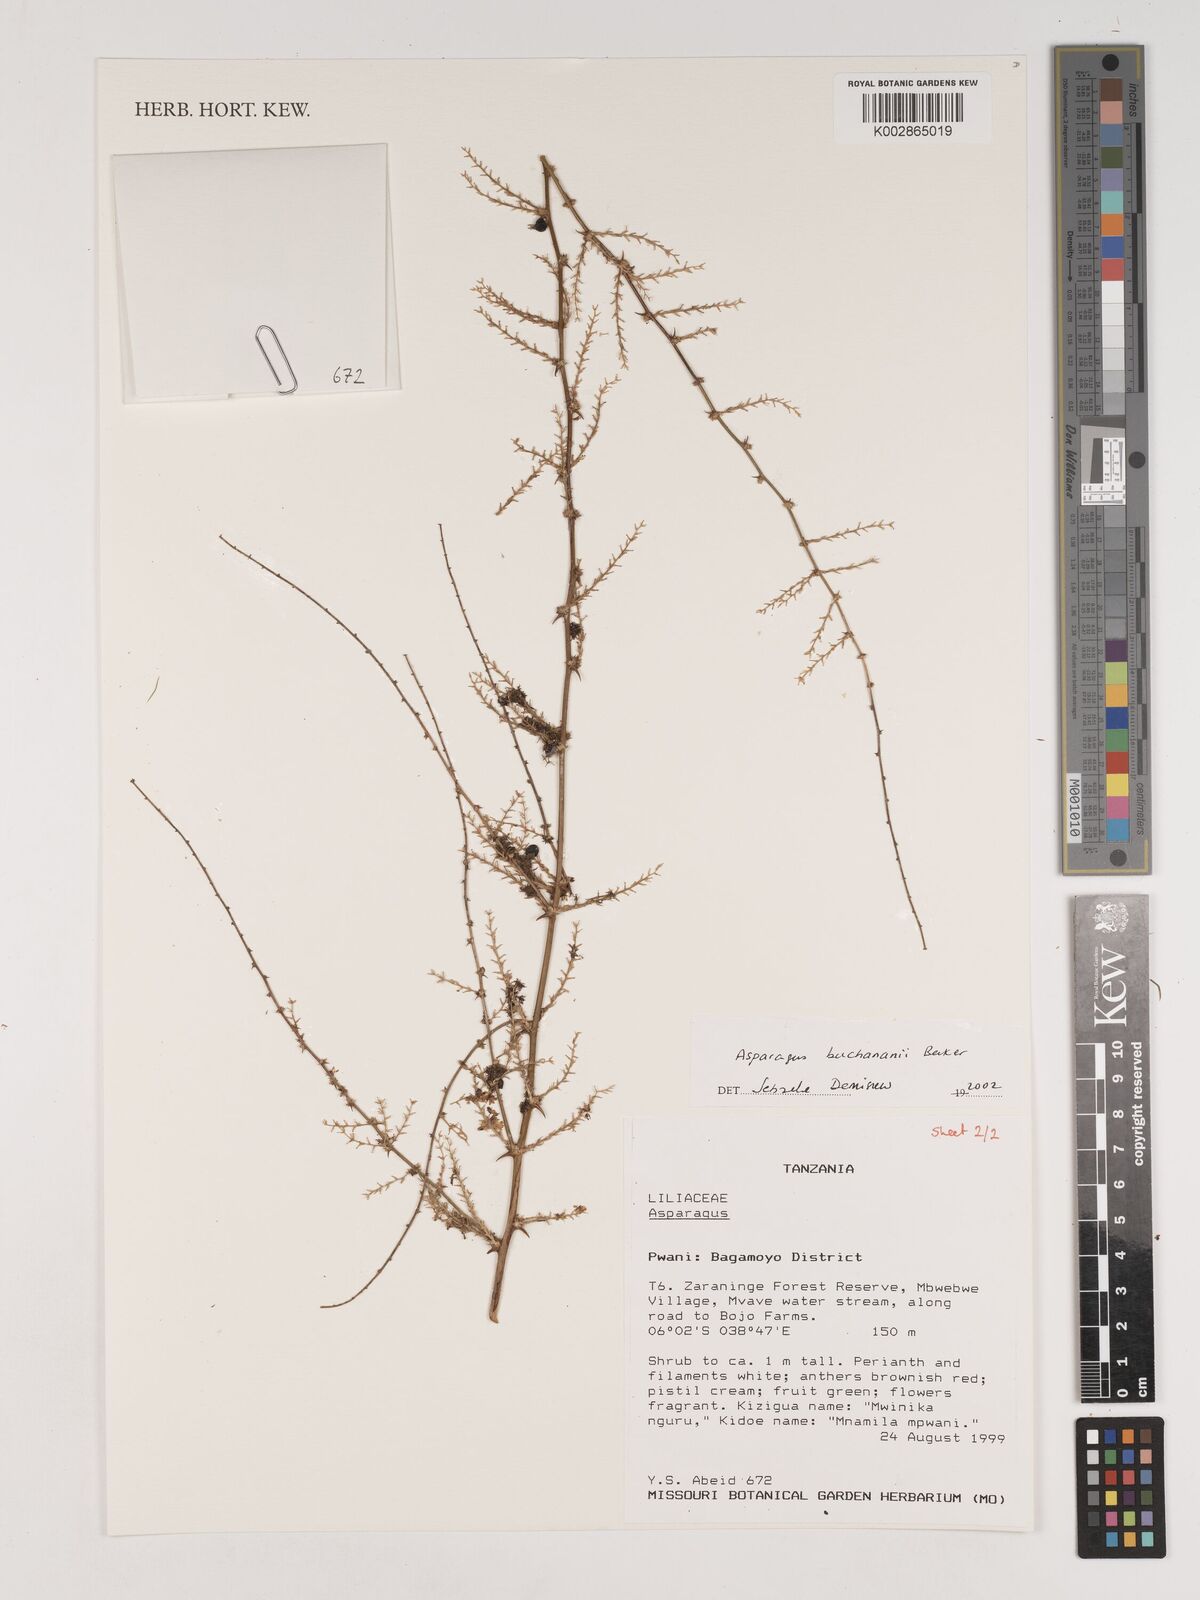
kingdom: Plantae
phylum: Tracheophyta
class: Liliopsida
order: Asparagales
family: Asparagaceae
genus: Asparagus
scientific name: Asparagus buchananii
